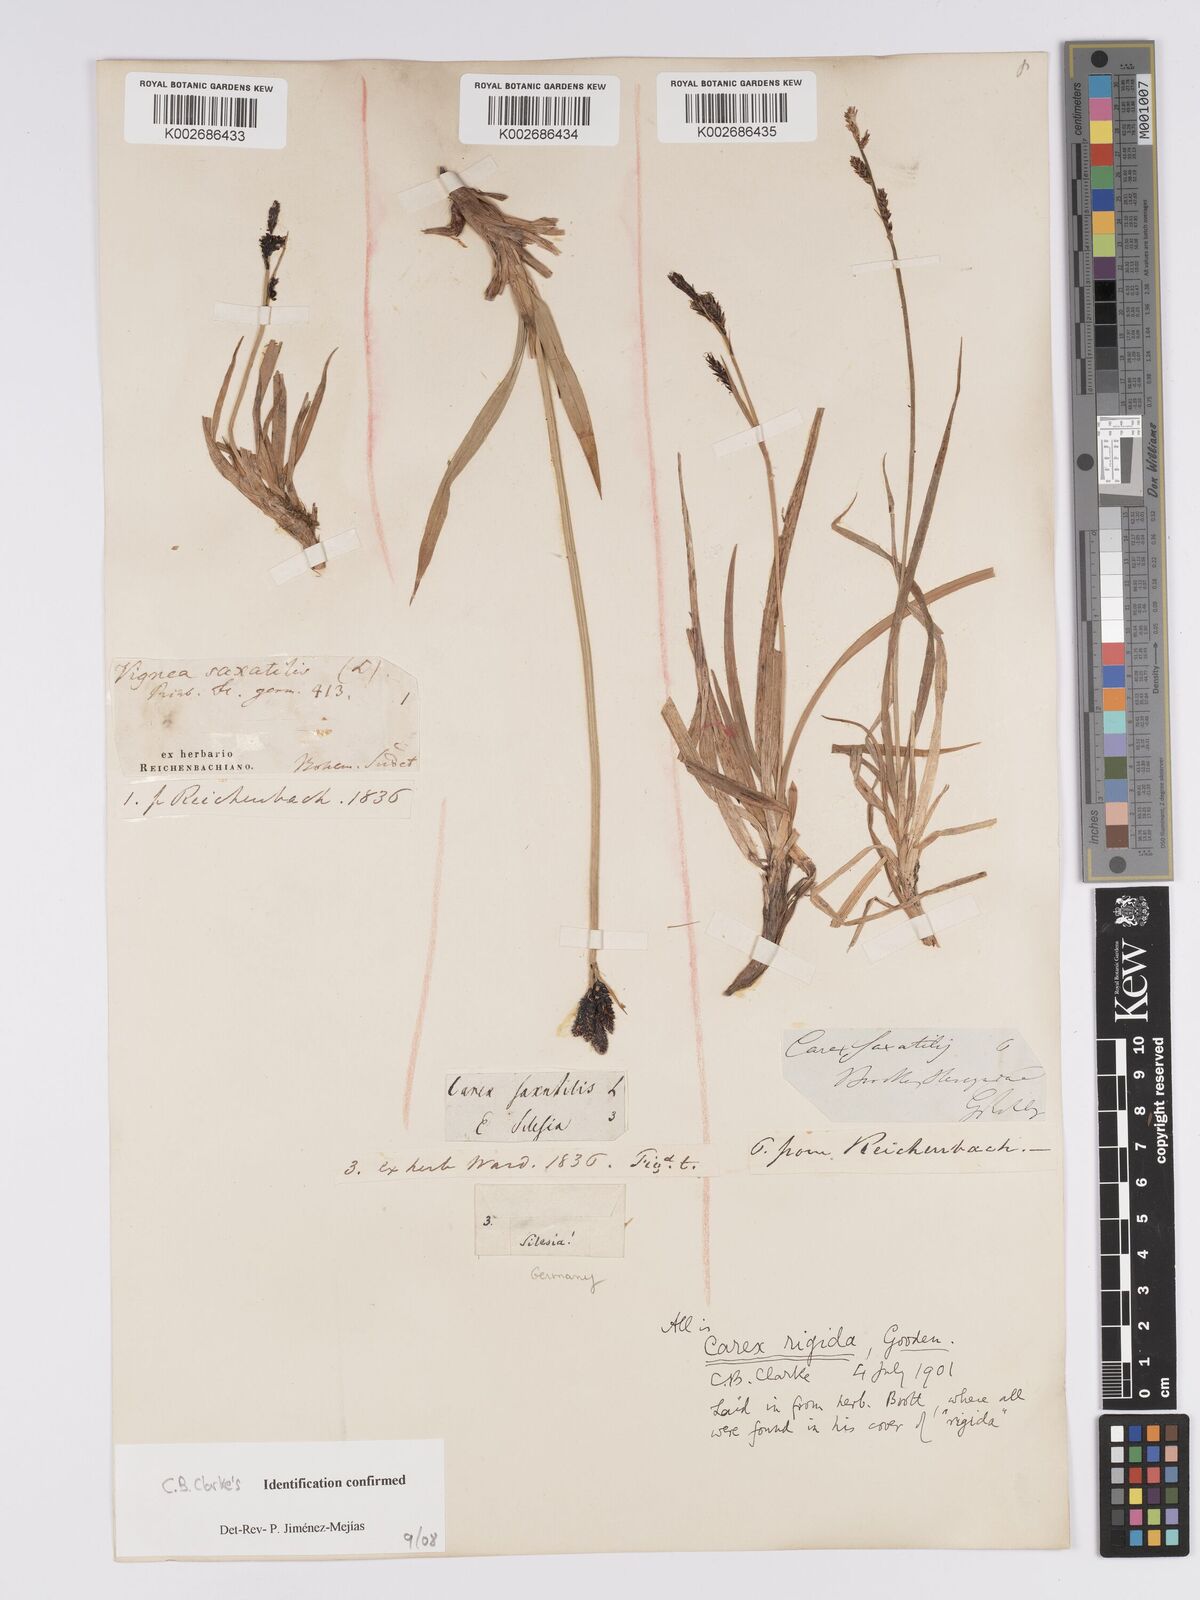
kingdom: Plantae
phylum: Tracheophyta
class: Liliopsida
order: Poales
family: Cyperaceae
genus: Carex
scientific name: Carex bigelowii
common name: Stiff sedge
